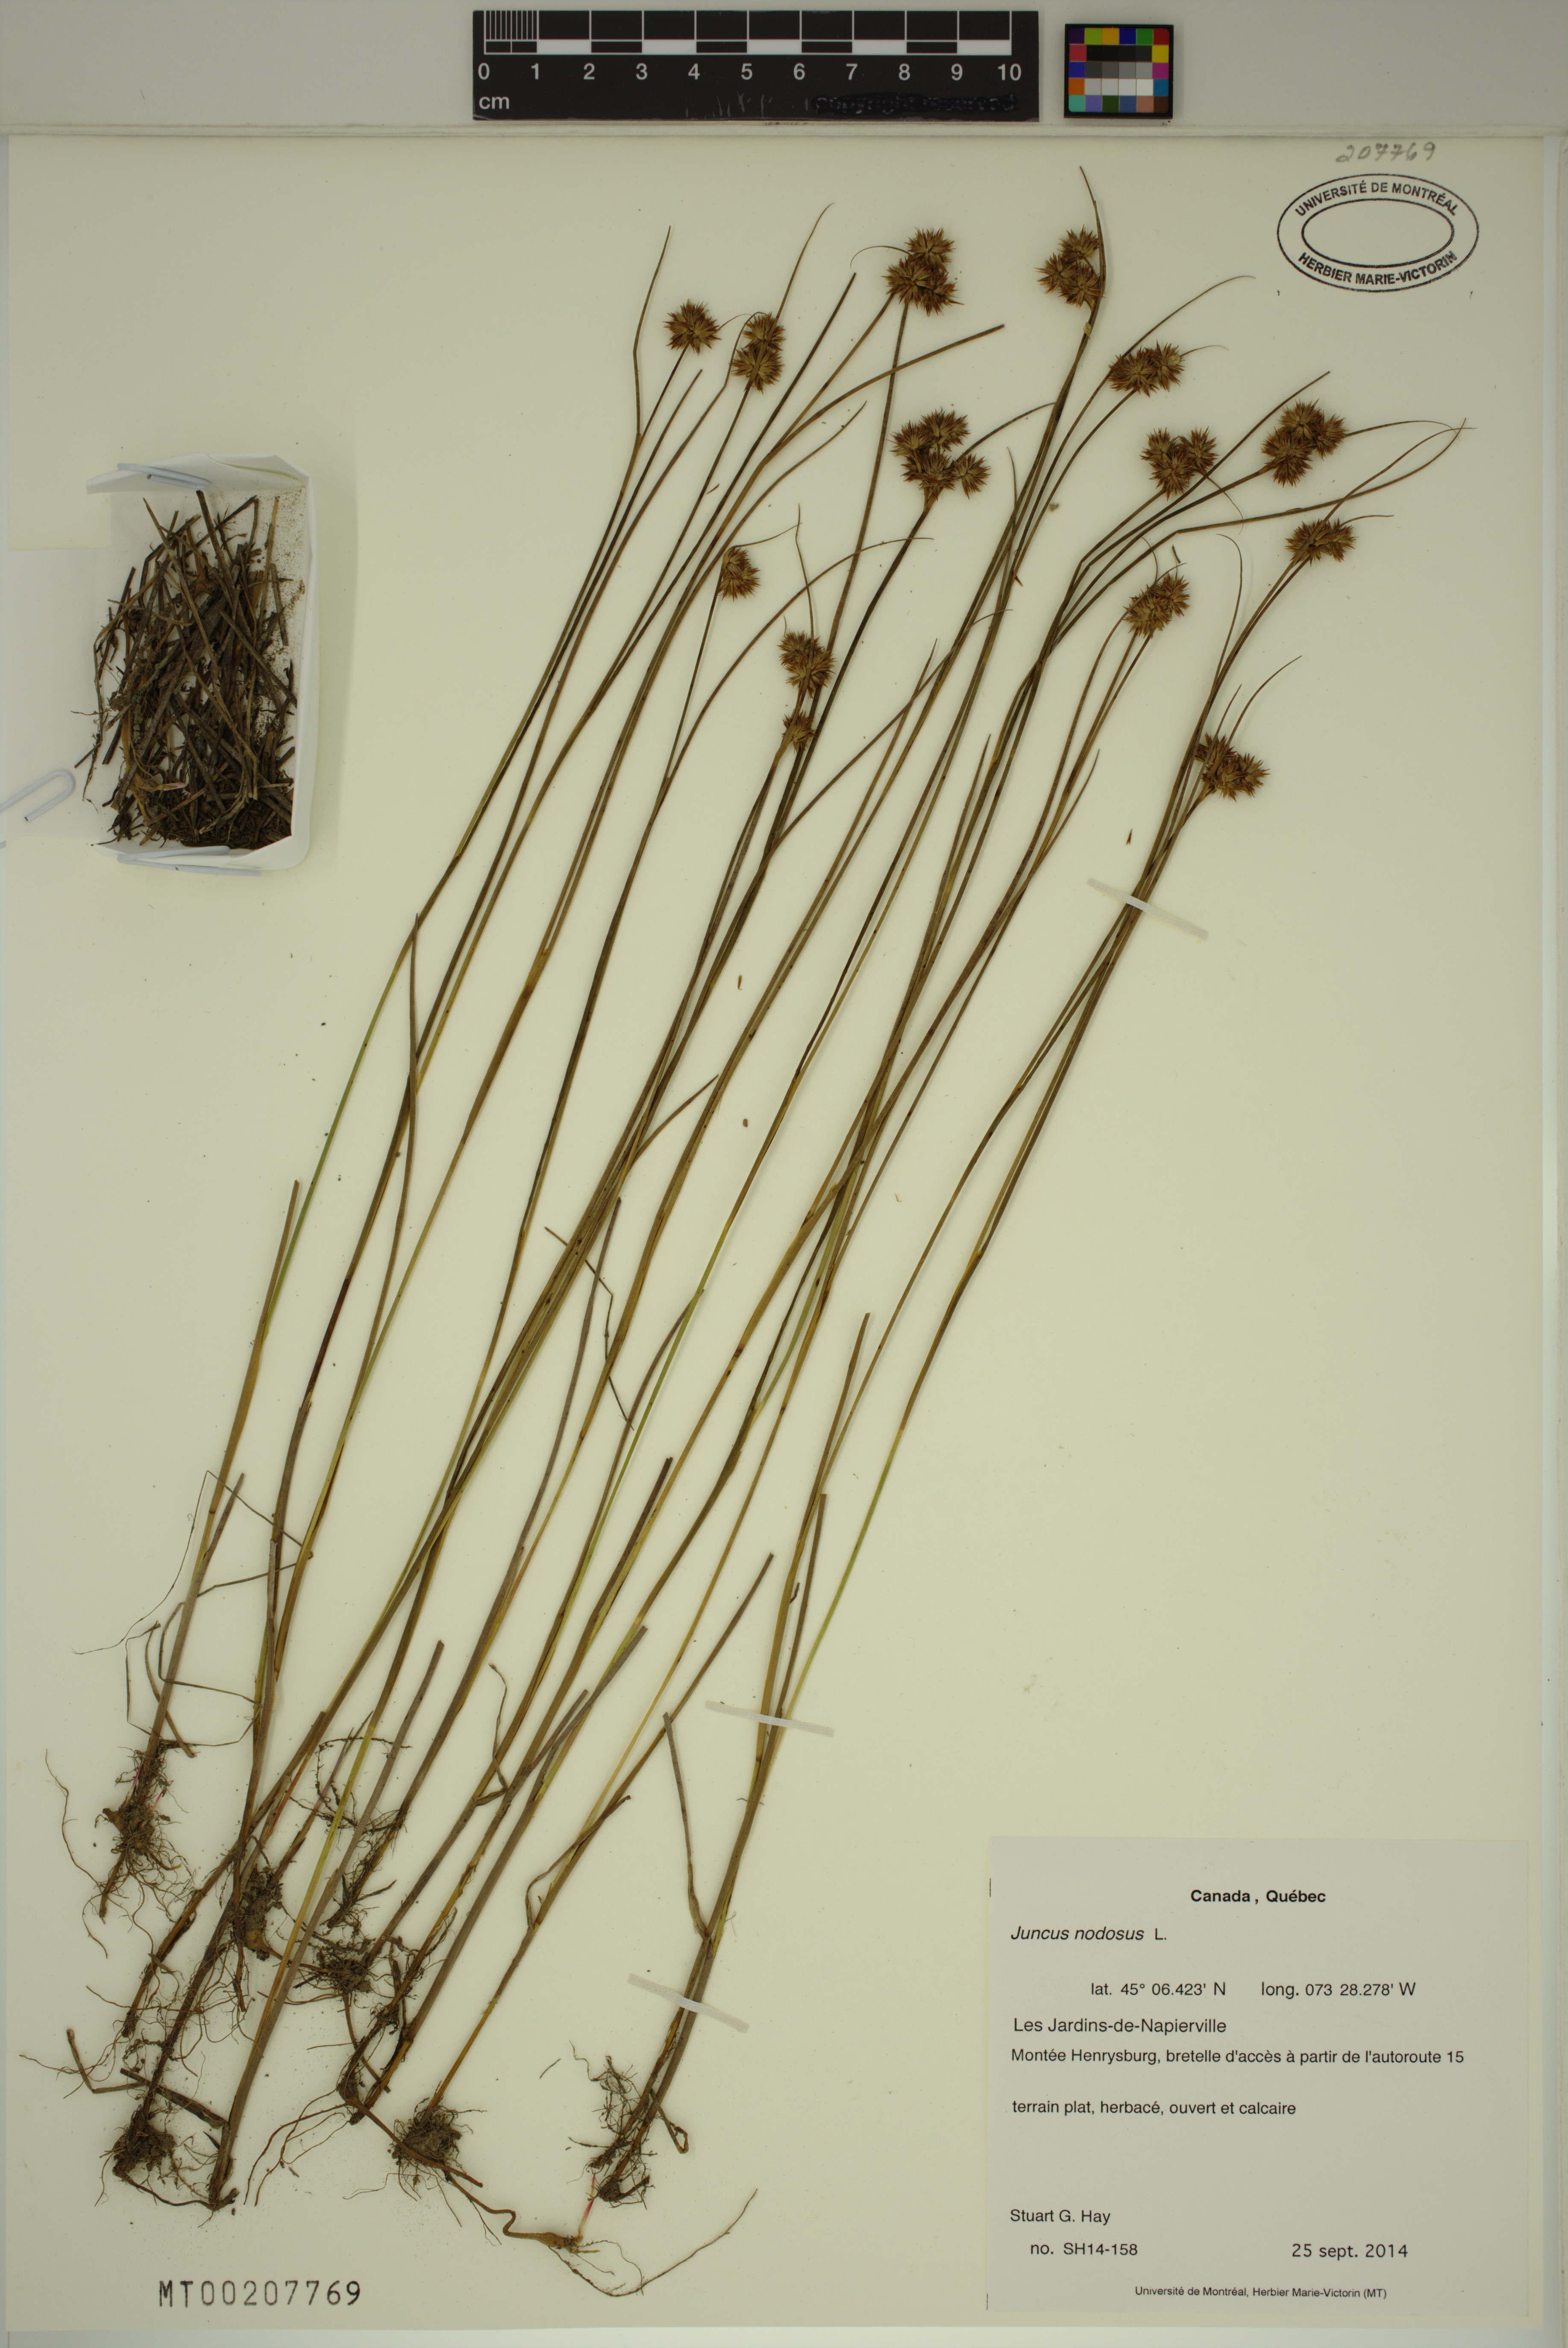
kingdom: Plantae
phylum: Tracheophyta
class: Liliopsida
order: Poales
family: Juncaceae
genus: Juncus
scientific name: Juncus nodosus
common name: Knotted rush
